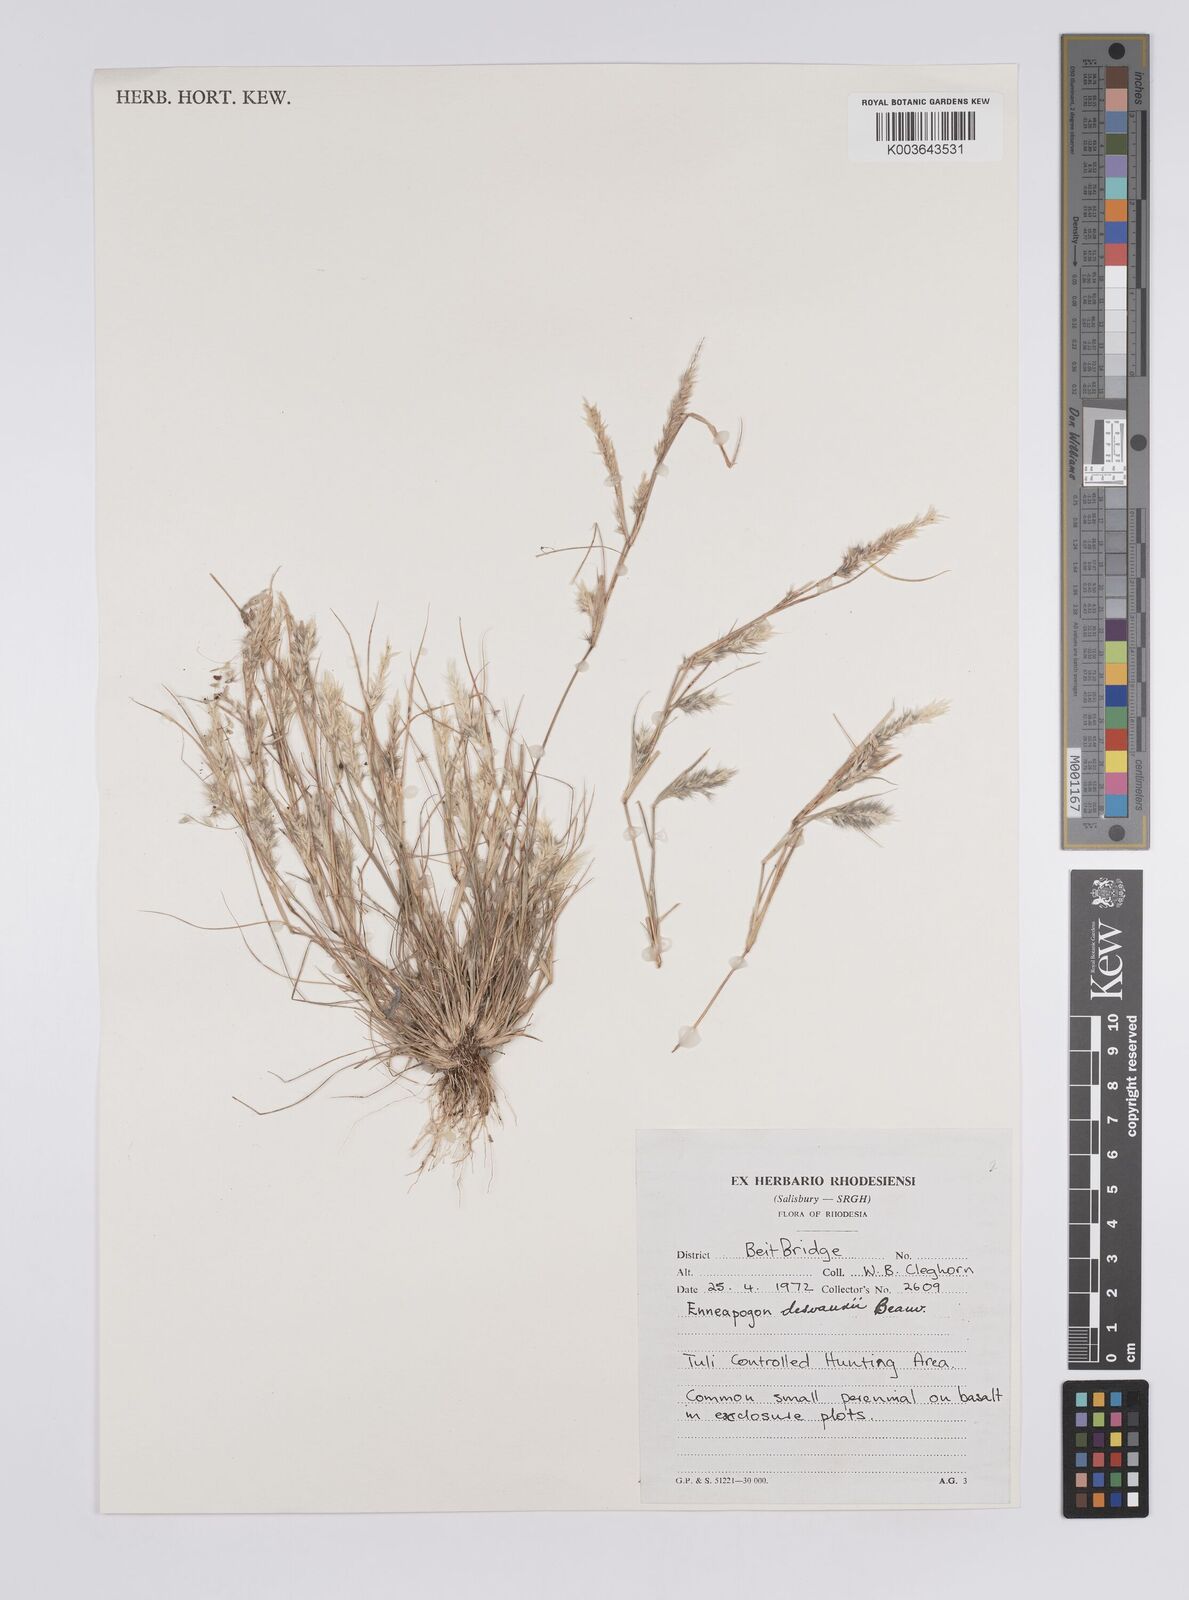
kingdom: Plantae
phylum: Tracheophyta
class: Liliopsida
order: Poales
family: Poaceae
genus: Enneapogon
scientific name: Enneapogon desvauxii
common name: Feather pappus grass
